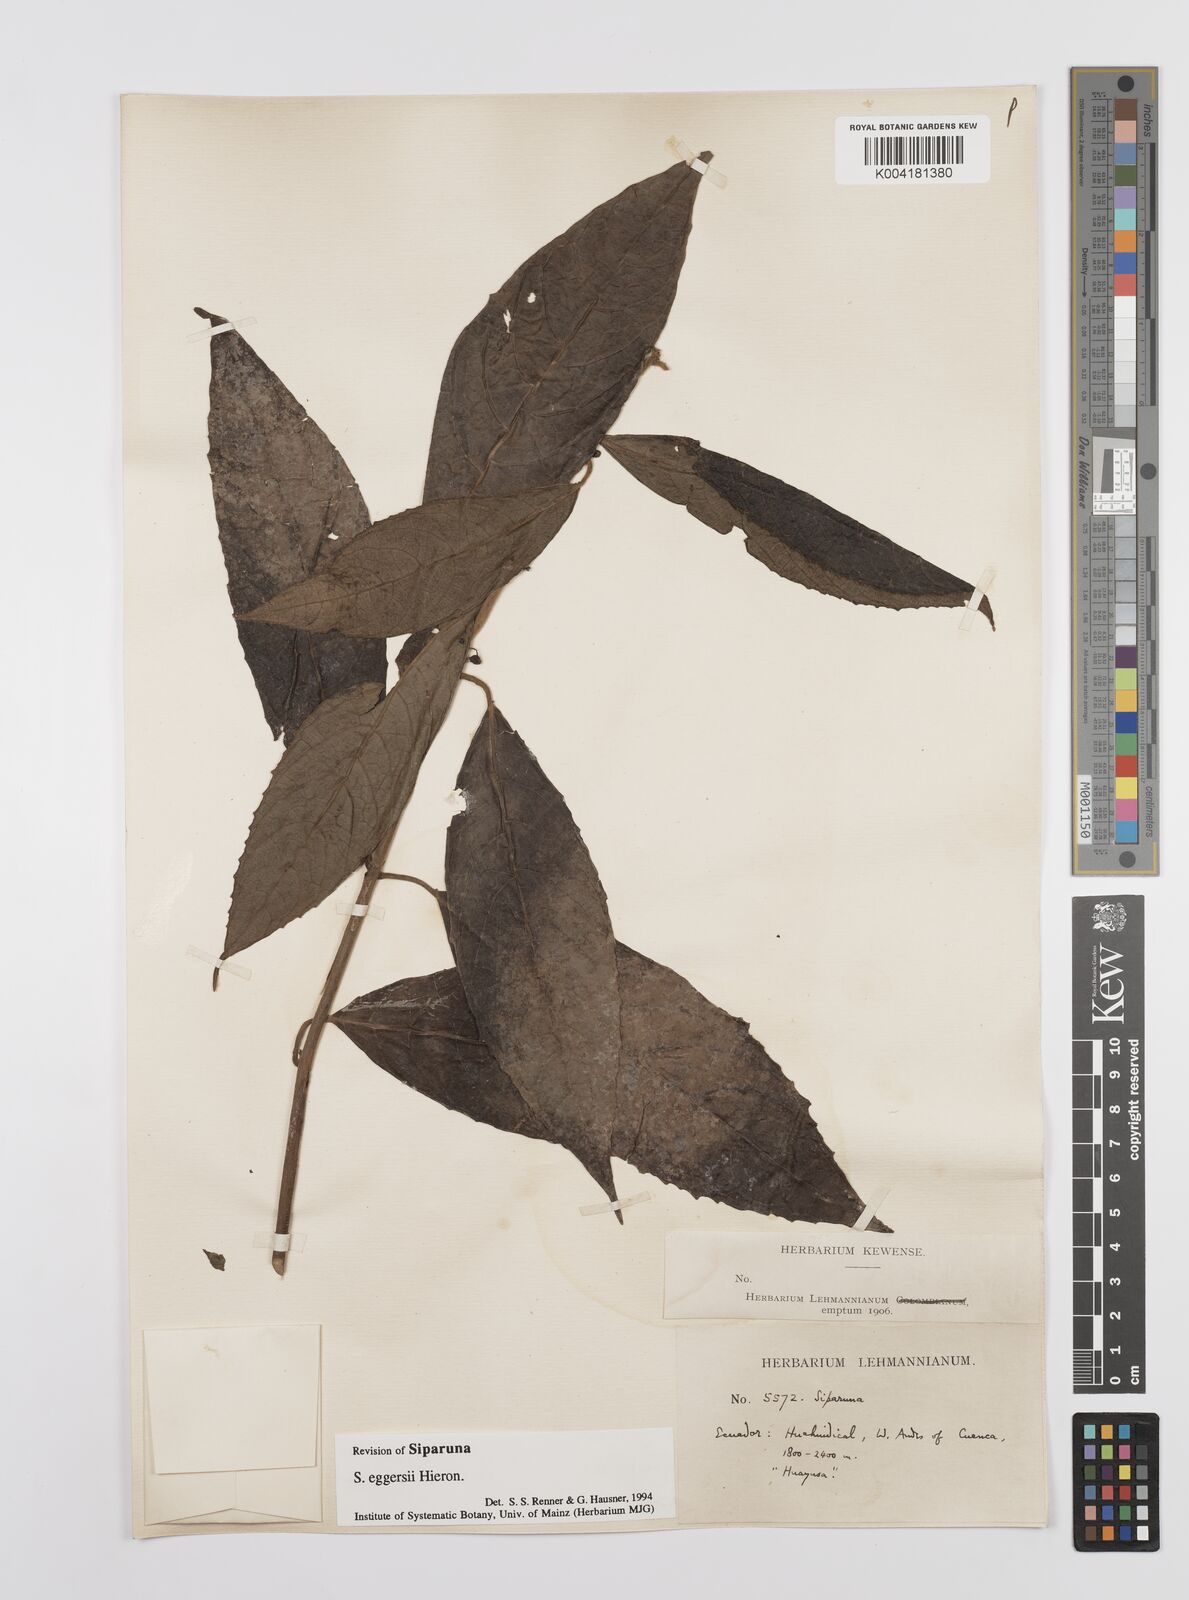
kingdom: Plantae
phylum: Tracheophyta
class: Magnoliopsida
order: Laurales
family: Siparunaceae
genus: Siparuna
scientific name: Siparuna eggersii
